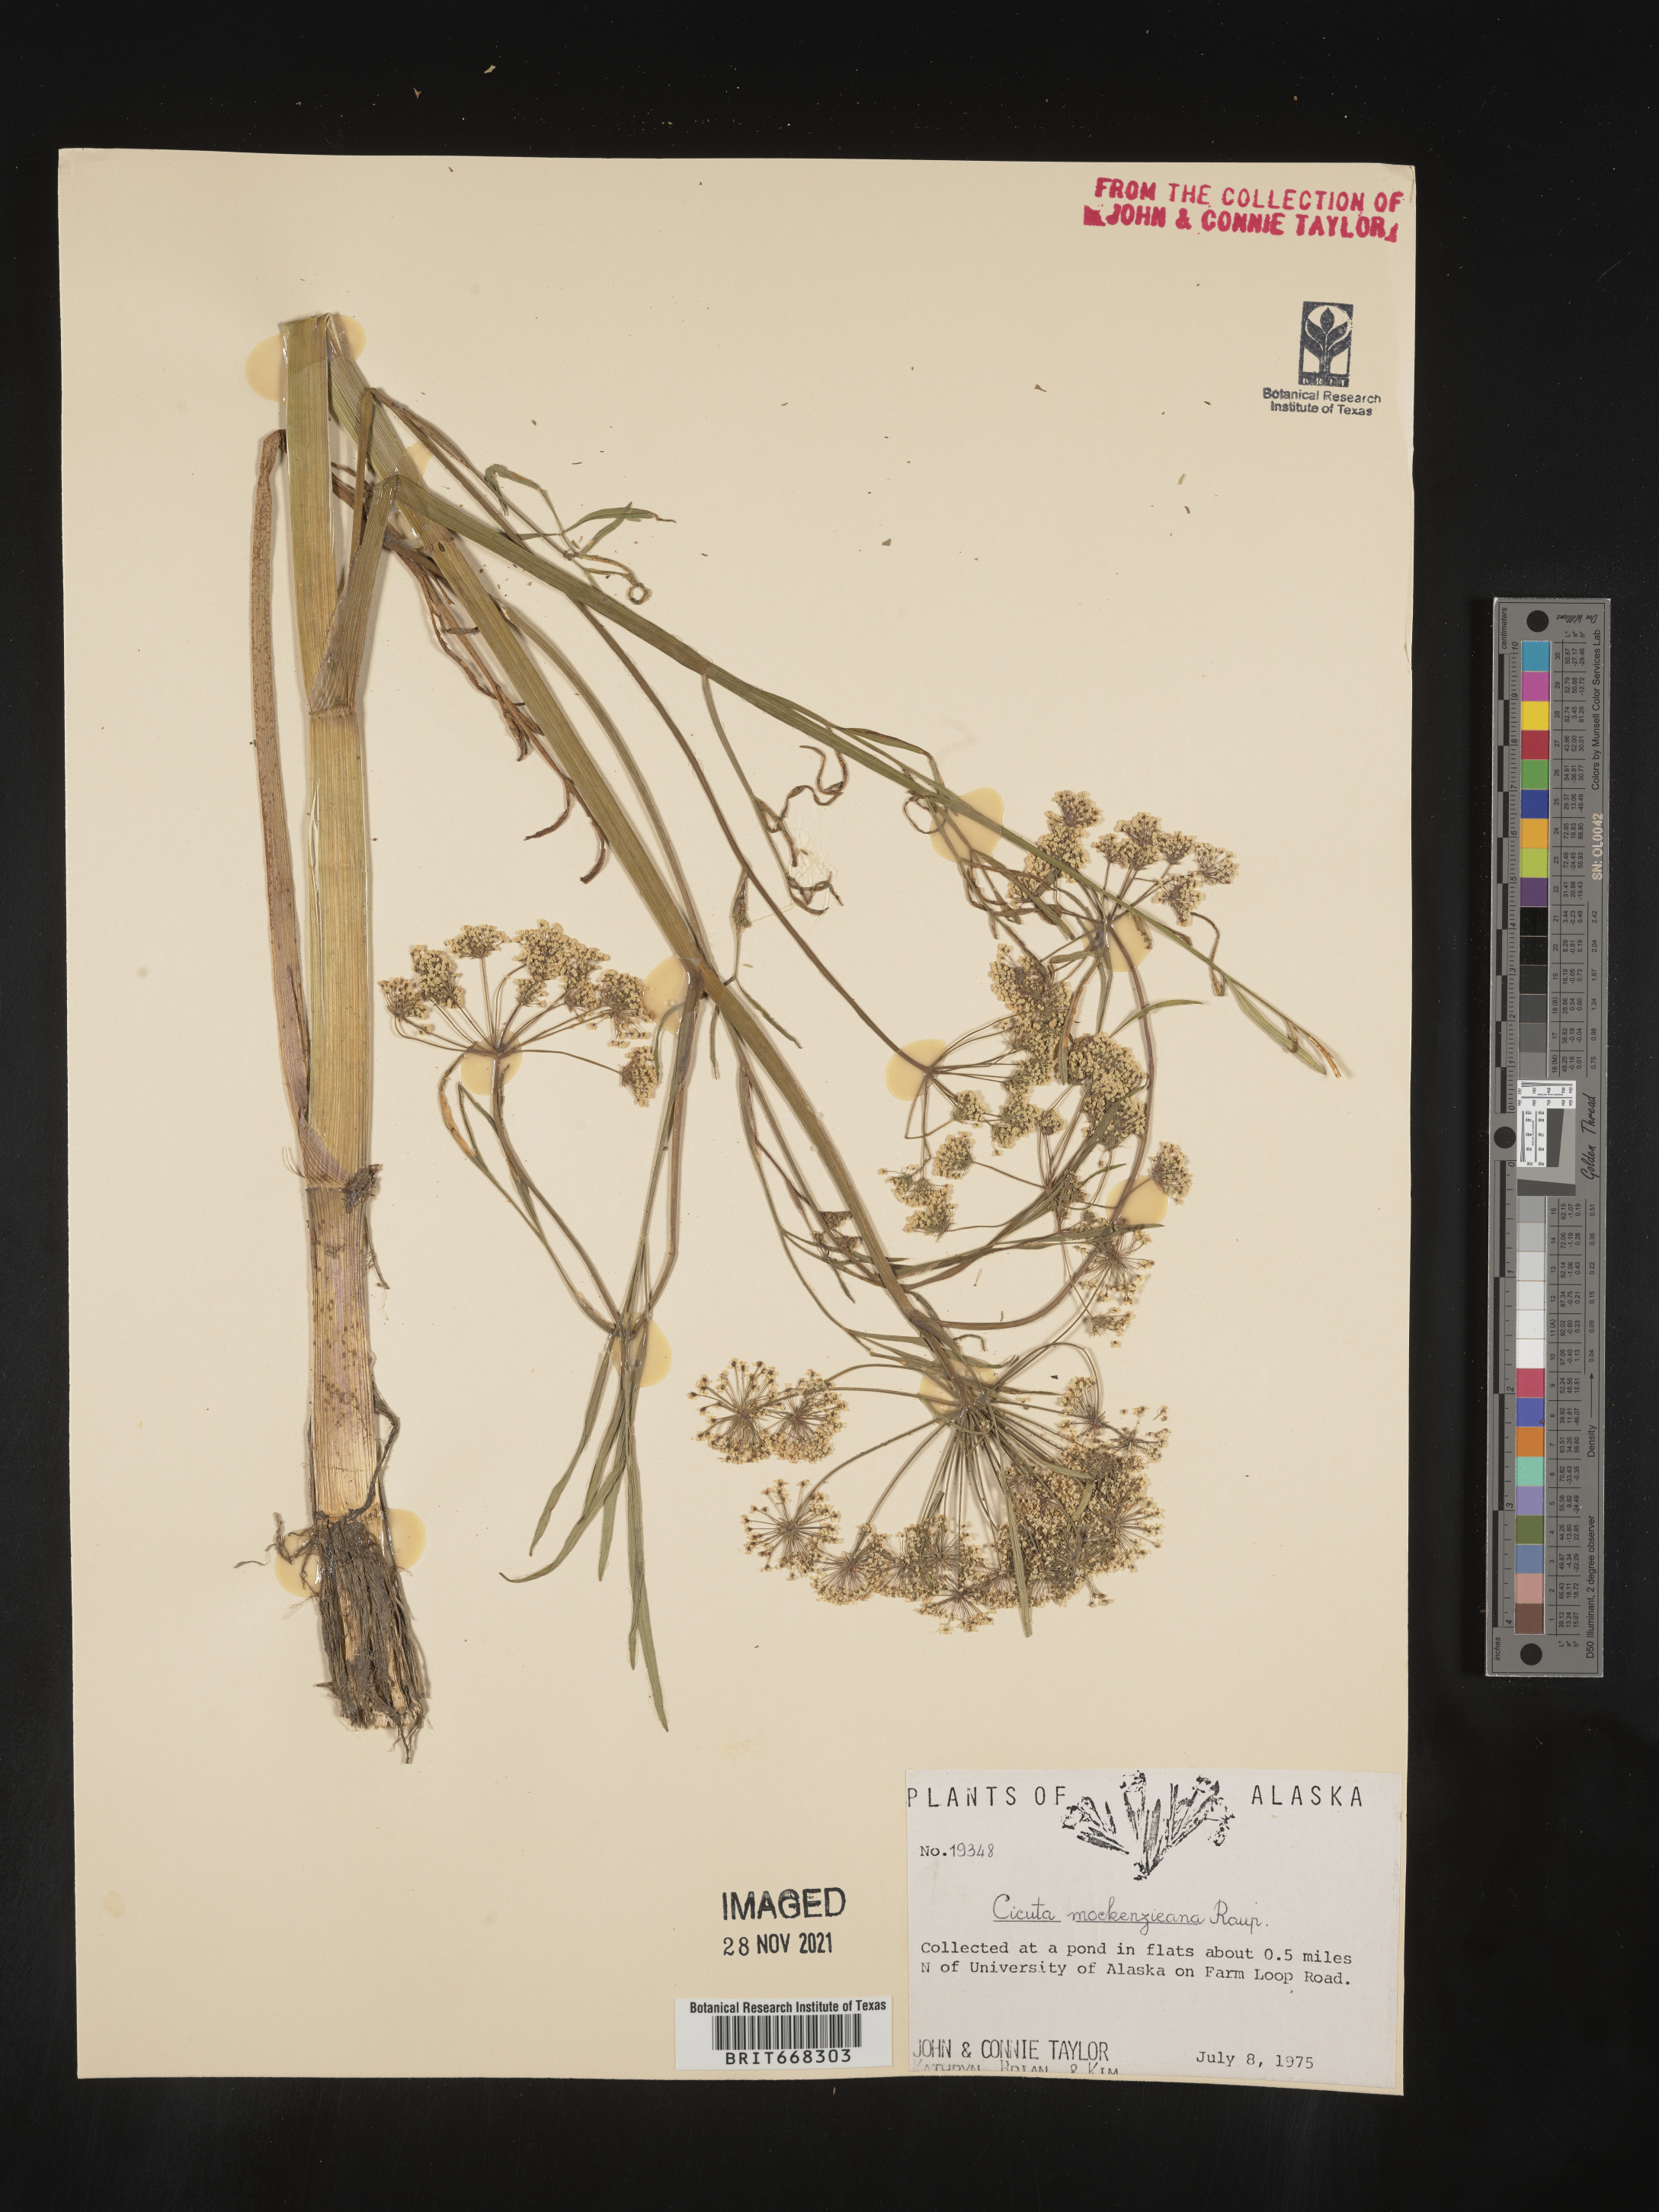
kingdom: Plantae
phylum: Tracheophyta
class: Magnoliopsida
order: Apiales
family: Apiaceae
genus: Cicuta
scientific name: Cicuta
